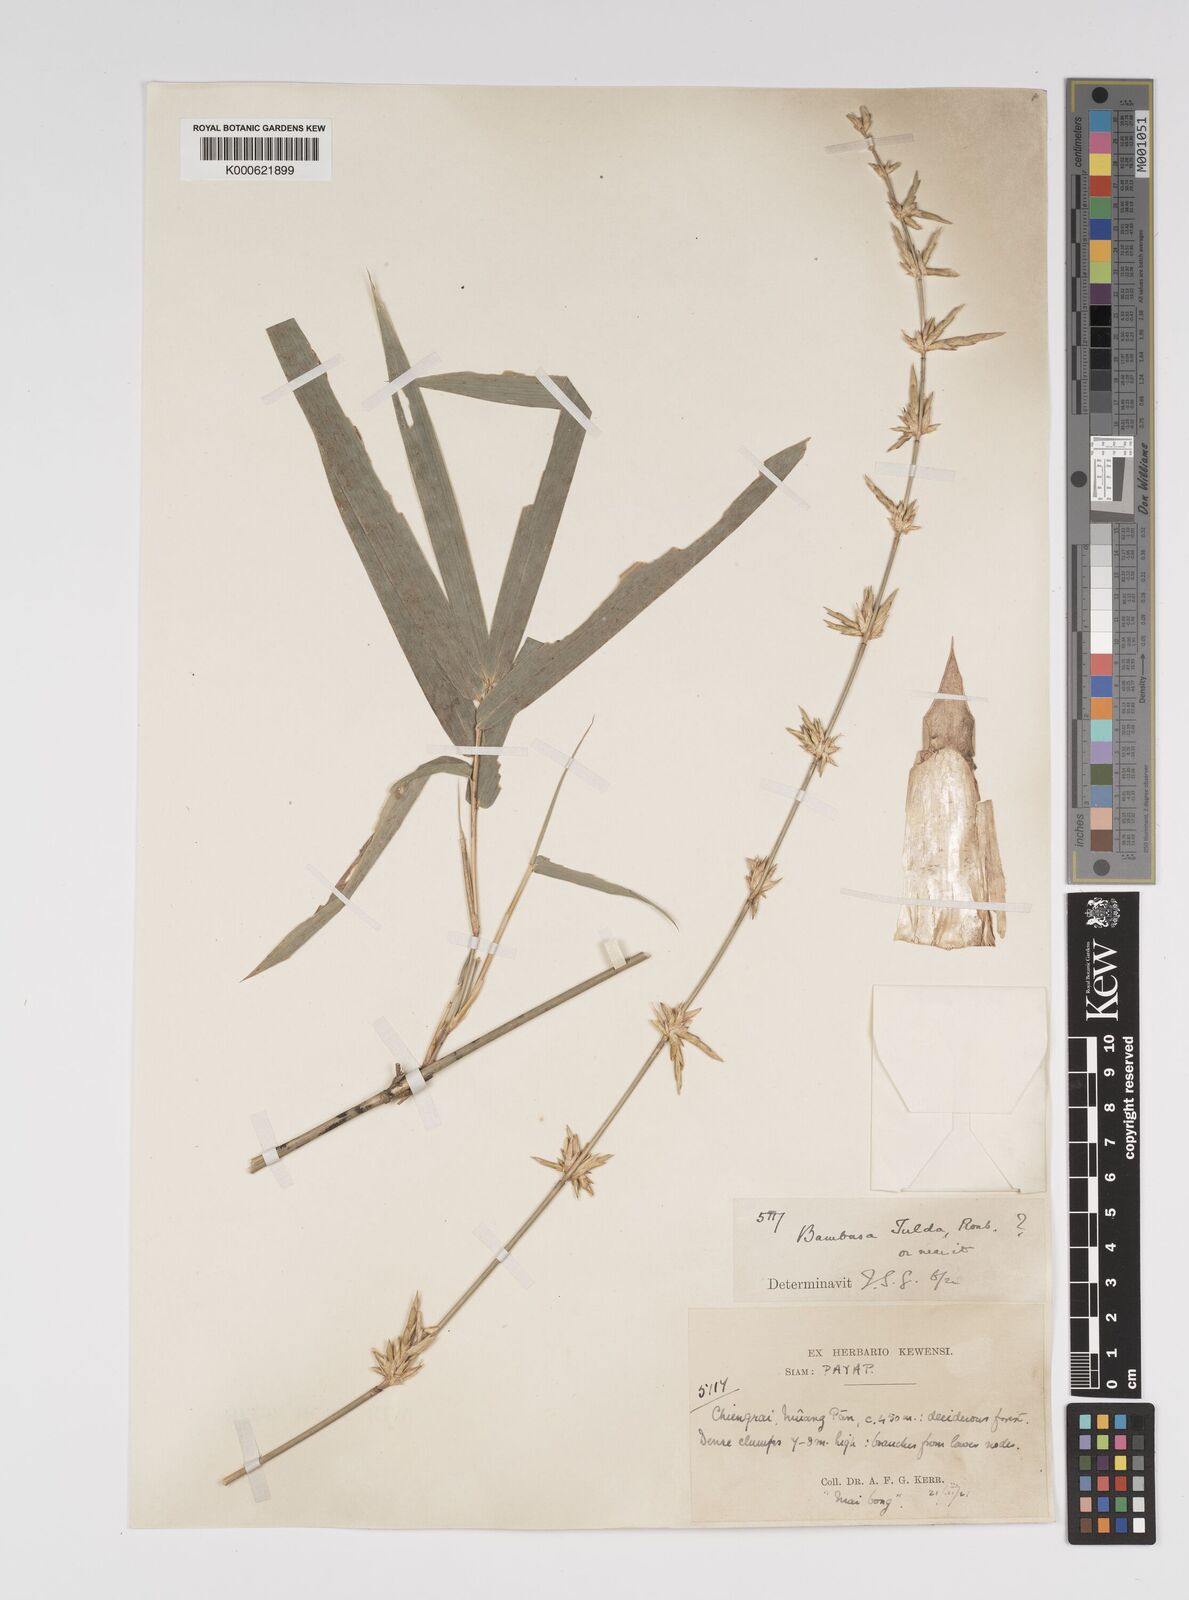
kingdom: Plantae
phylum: Tracheophyta
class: Liliopsida
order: Poales
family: Poaceae
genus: Bambusa
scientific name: Bambusa
